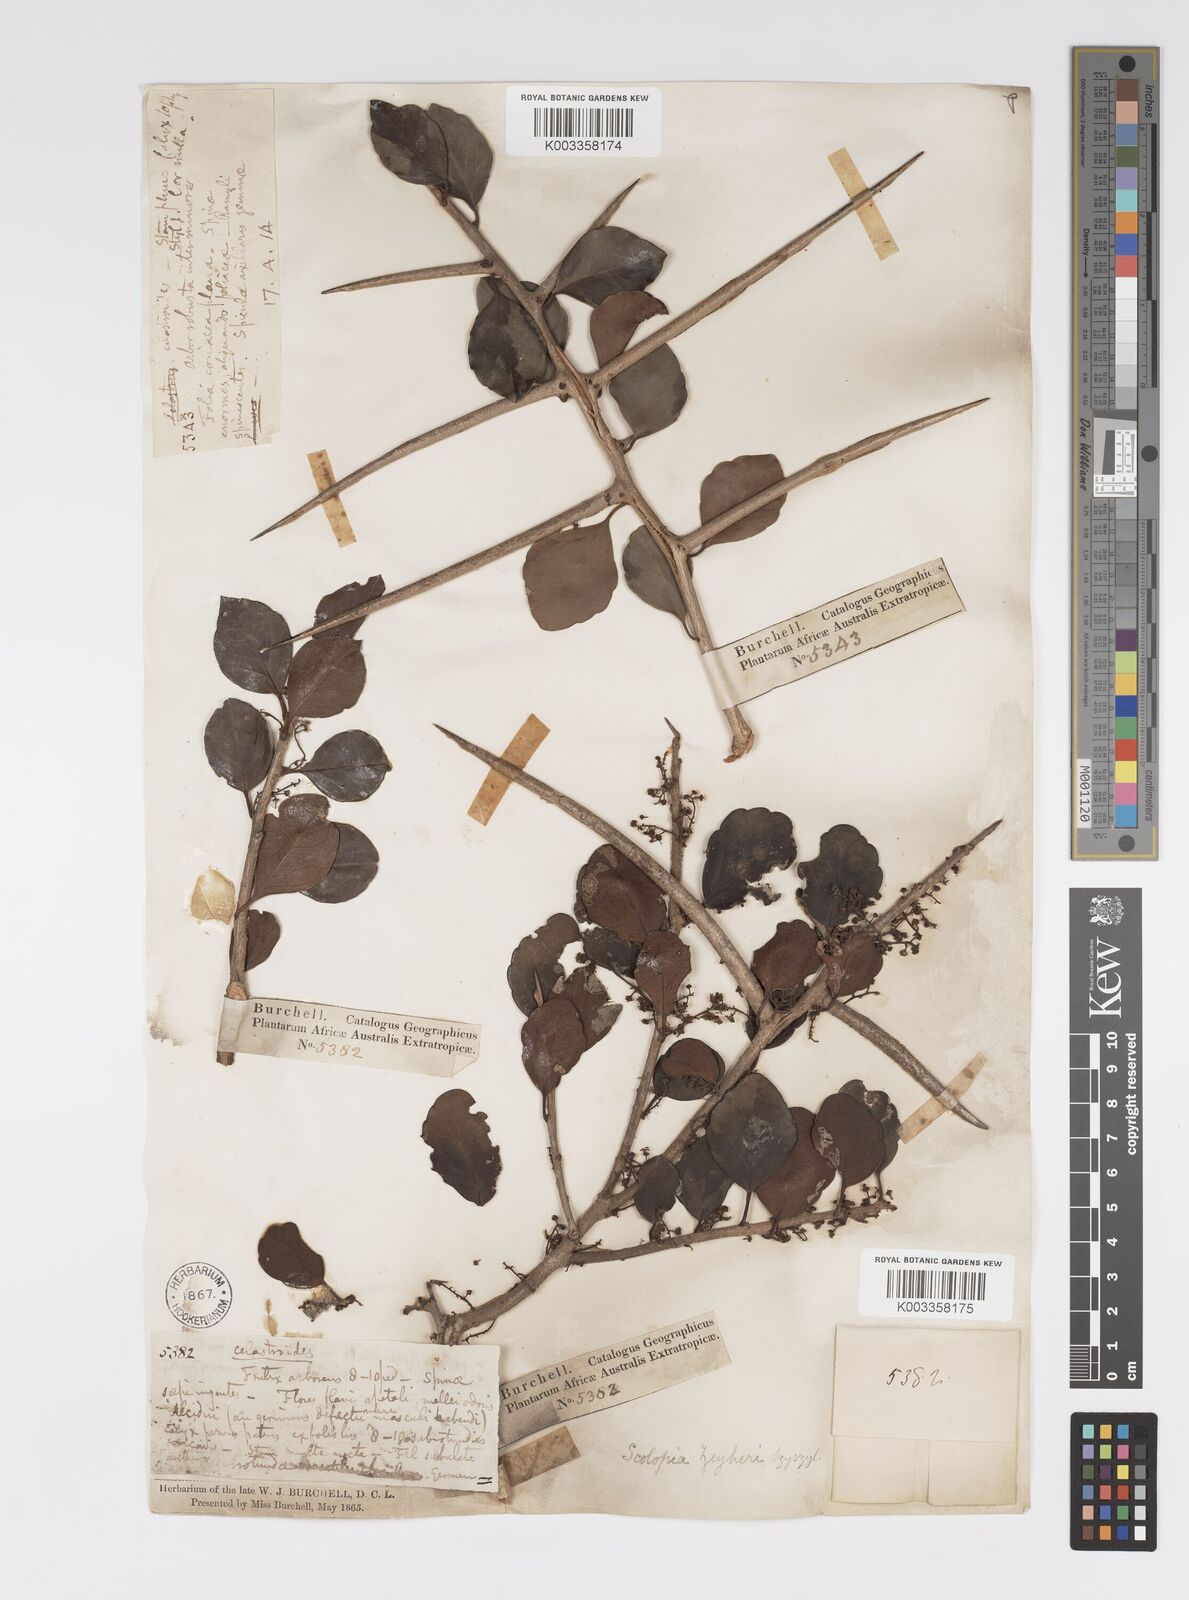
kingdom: Plantae
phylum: Tracheophyta
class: Magnoliopsida
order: Malpighiales
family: Salicaceae
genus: Scolopia
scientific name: Scolopia zeyheri
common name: Thorn pear
